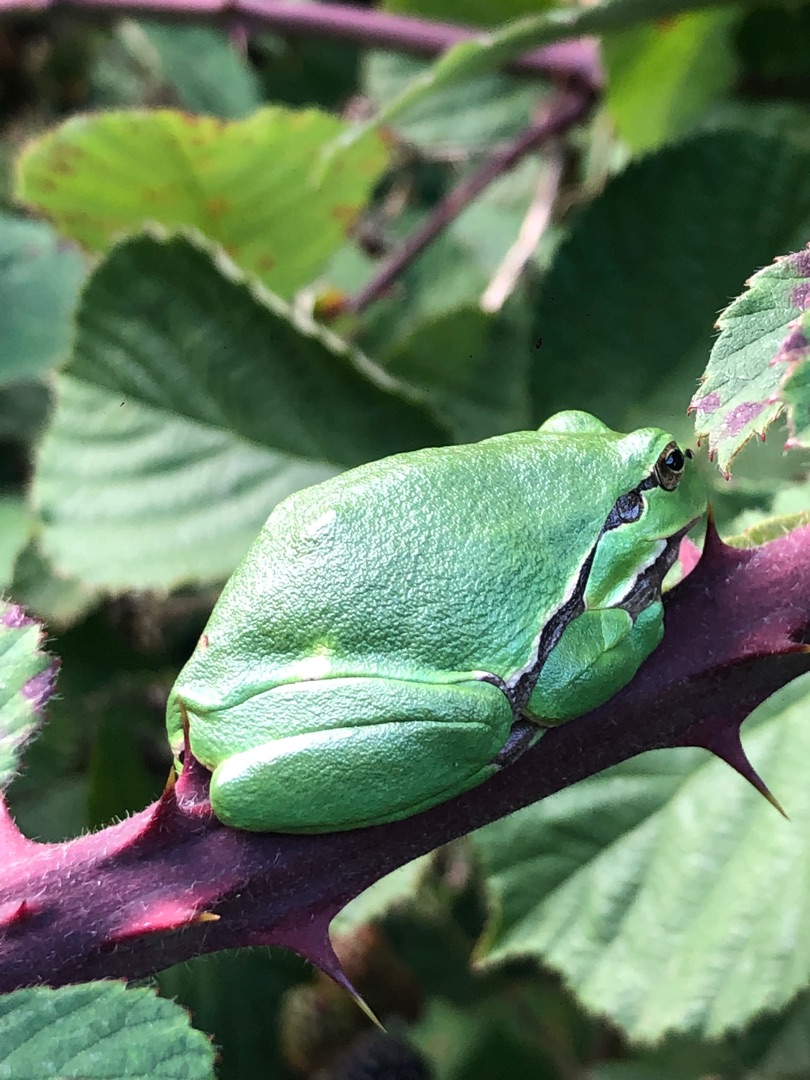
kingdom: Animalia
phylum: Chordata
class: Amphibia
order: Anura
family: Hylidae
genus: Hyla
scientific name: Hyla arborea
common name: Løvfrø
